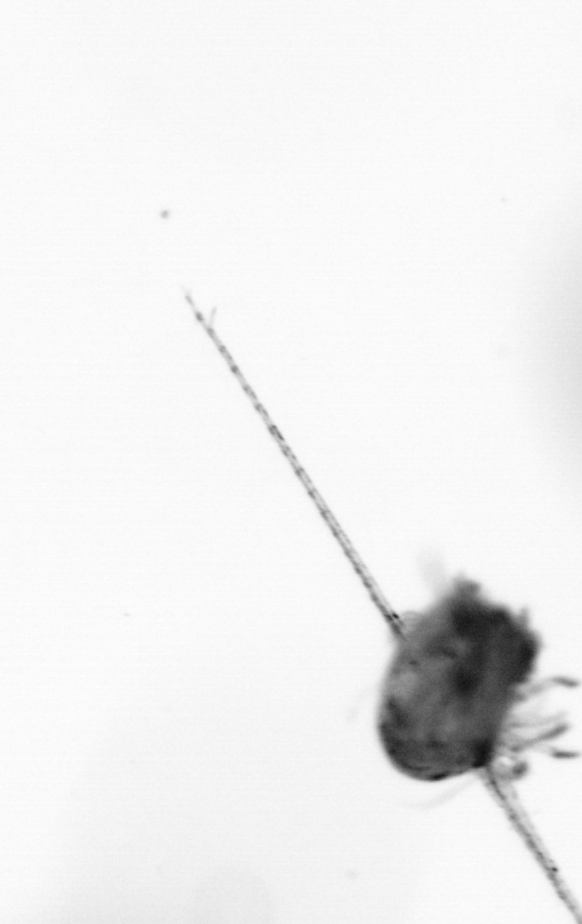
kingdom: Animalia
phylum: Arthropoda
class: Copepoda
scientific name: Copepoda
